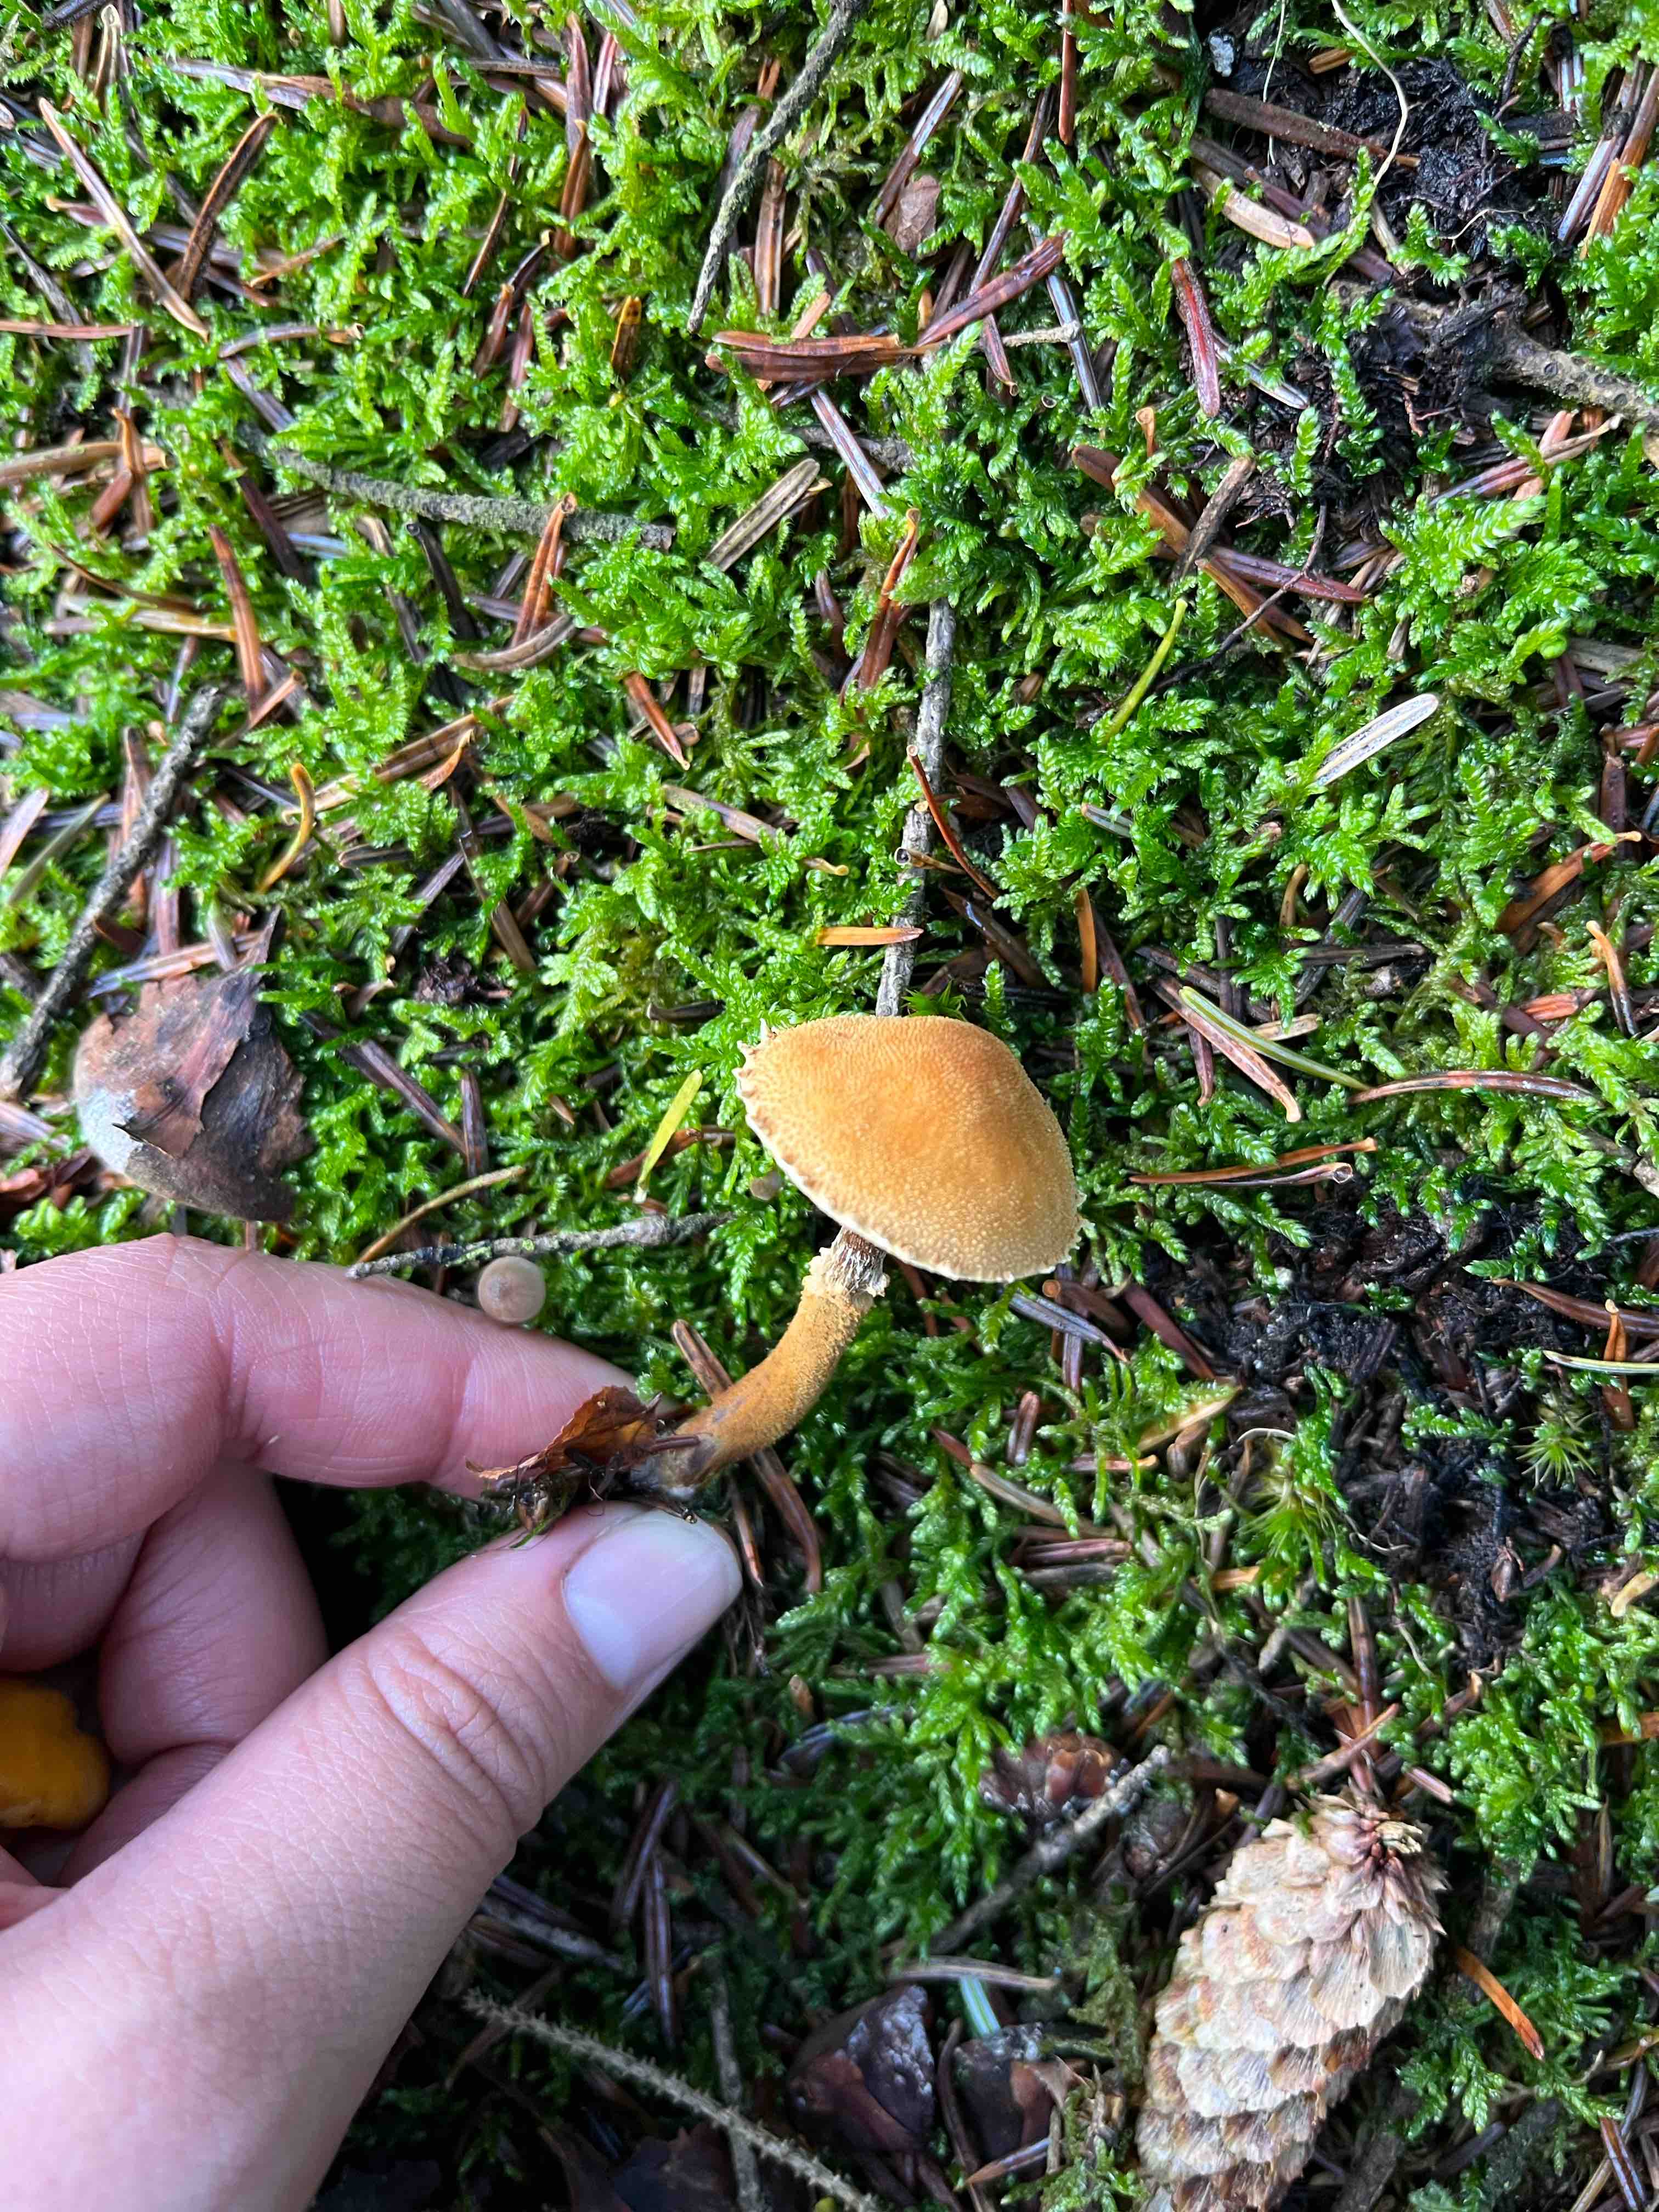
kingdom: Fungi
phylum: Basidiomycota
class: Agaricomycetes
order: Agaricales
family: Tricholomataceae
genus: Cystoderma
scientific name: Cystoderma jasonis
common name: gulkødet grynhat
